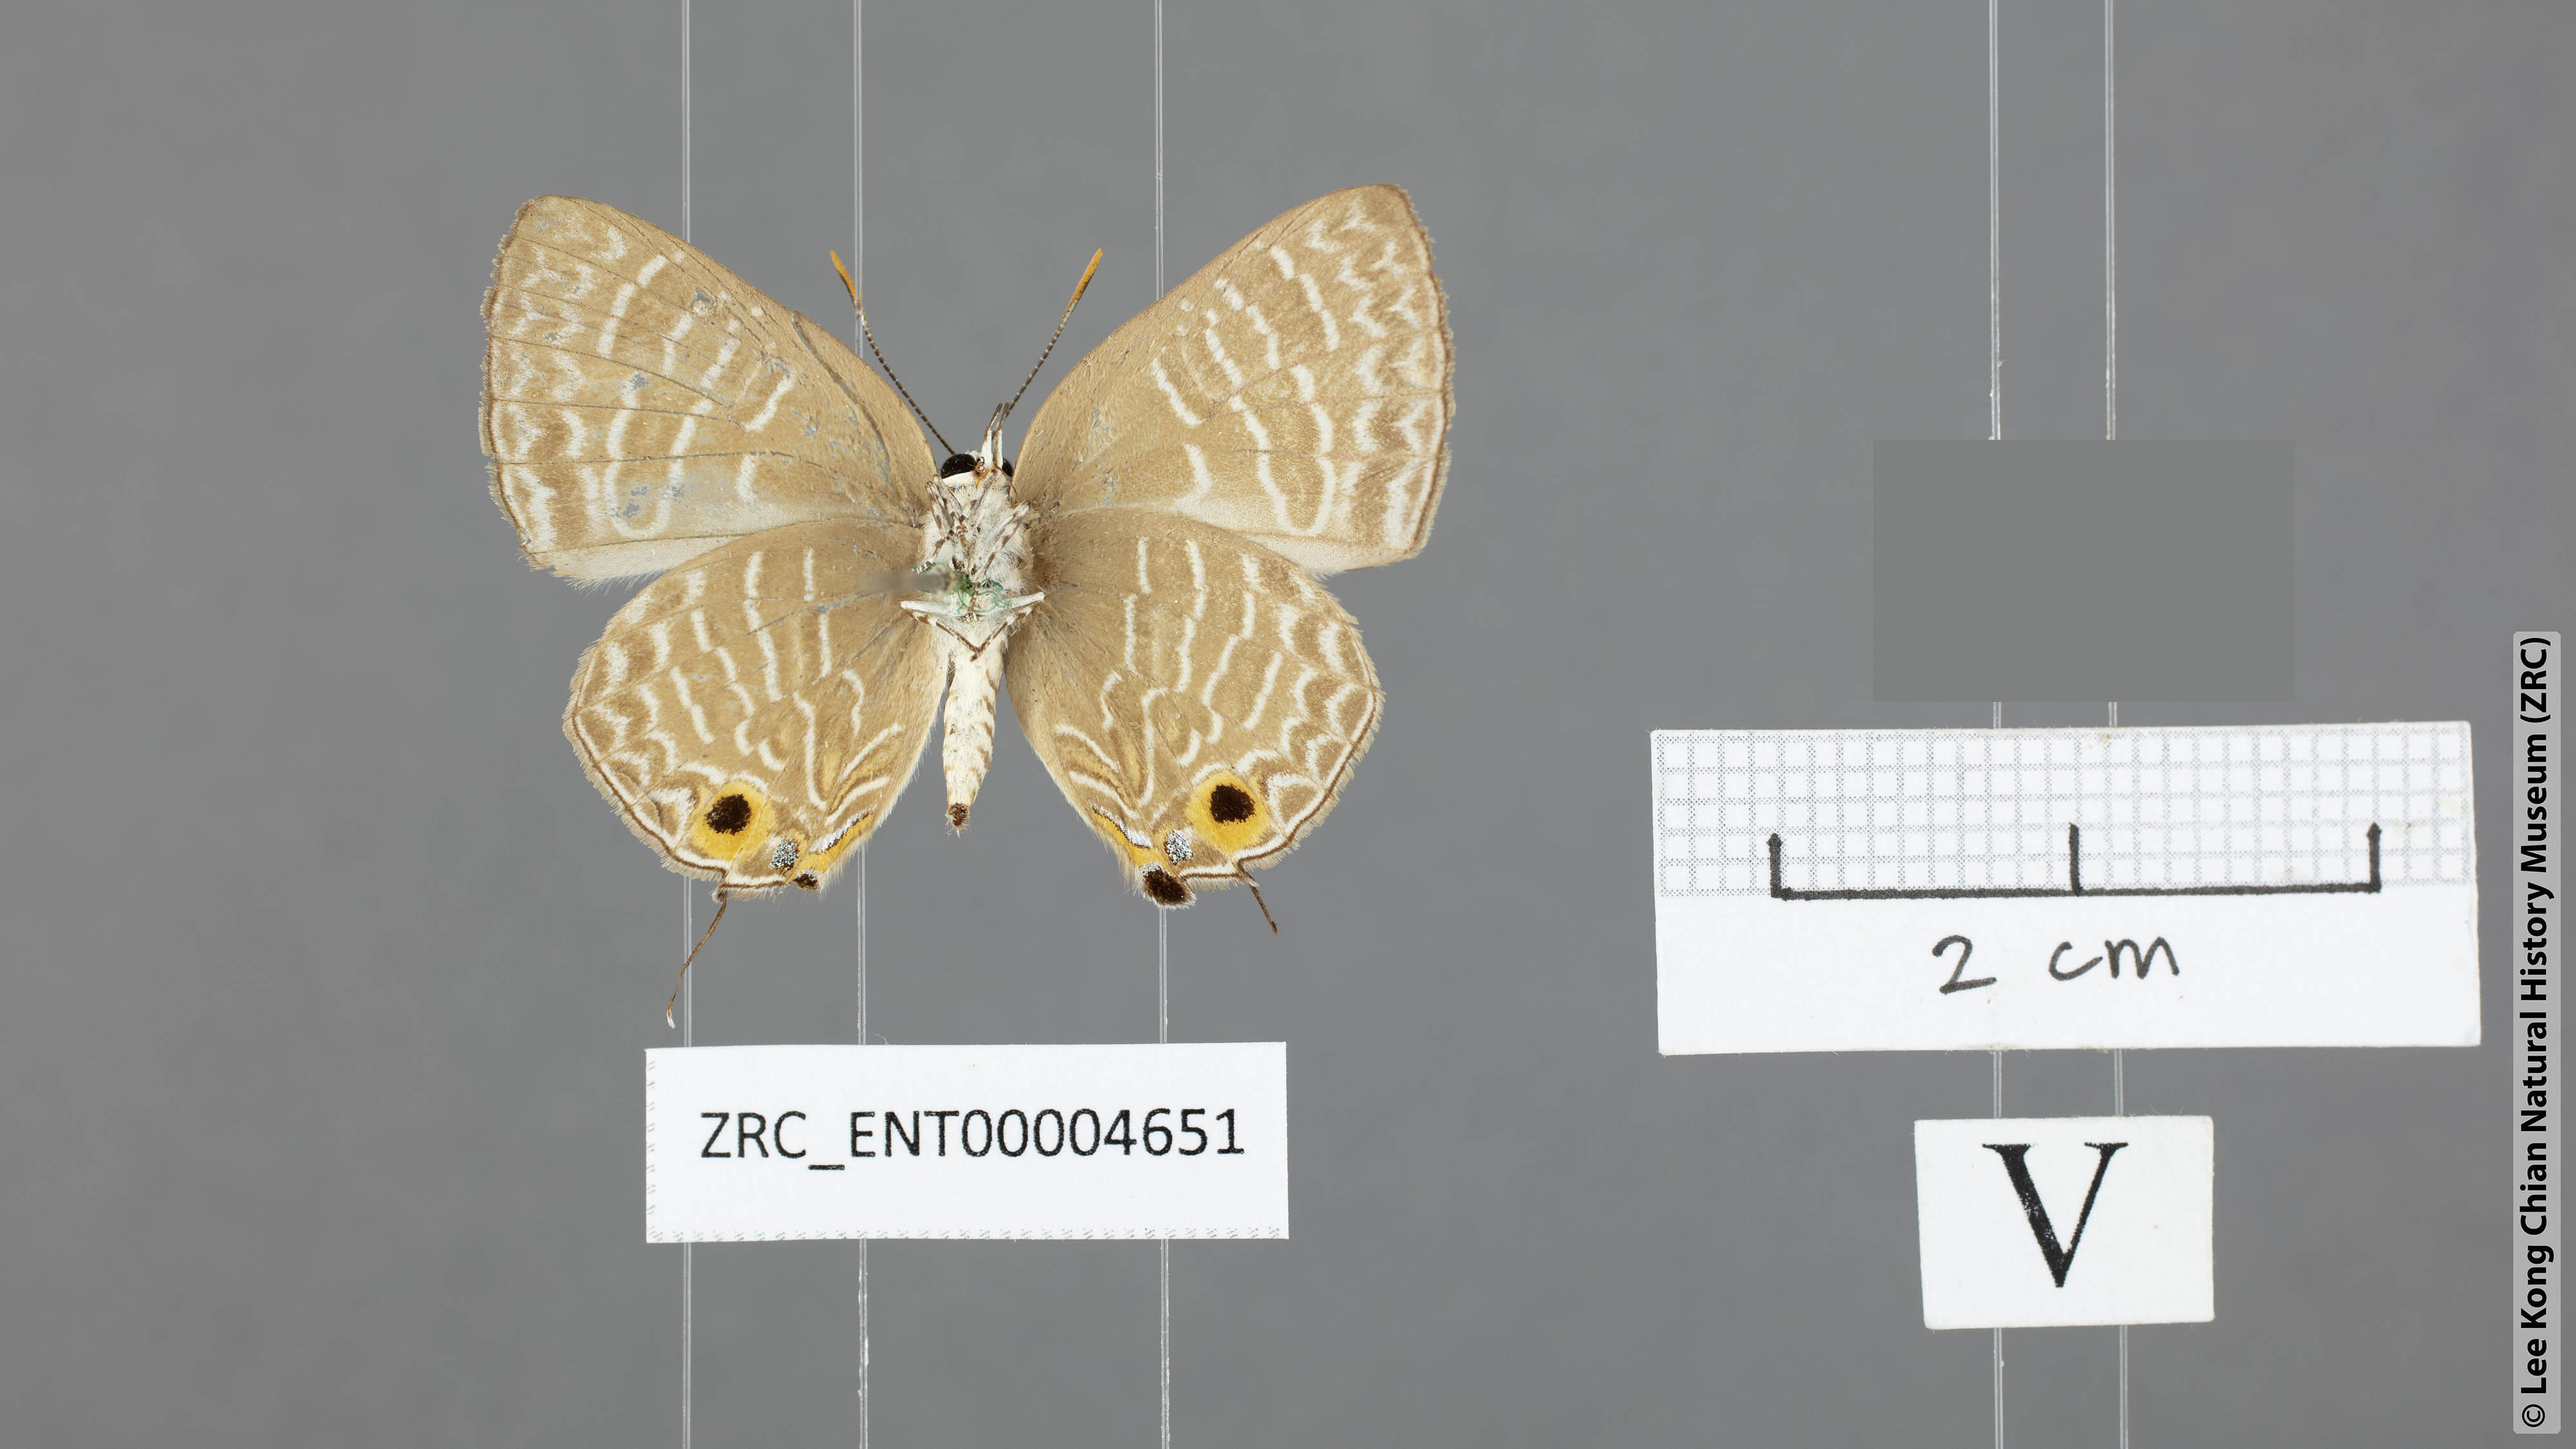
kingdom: Animalia
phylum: Arthropoda
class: Insecta
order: Lepidoptera
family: Lycaenidae
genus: Deudorix
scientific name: Deudorix kessuma
